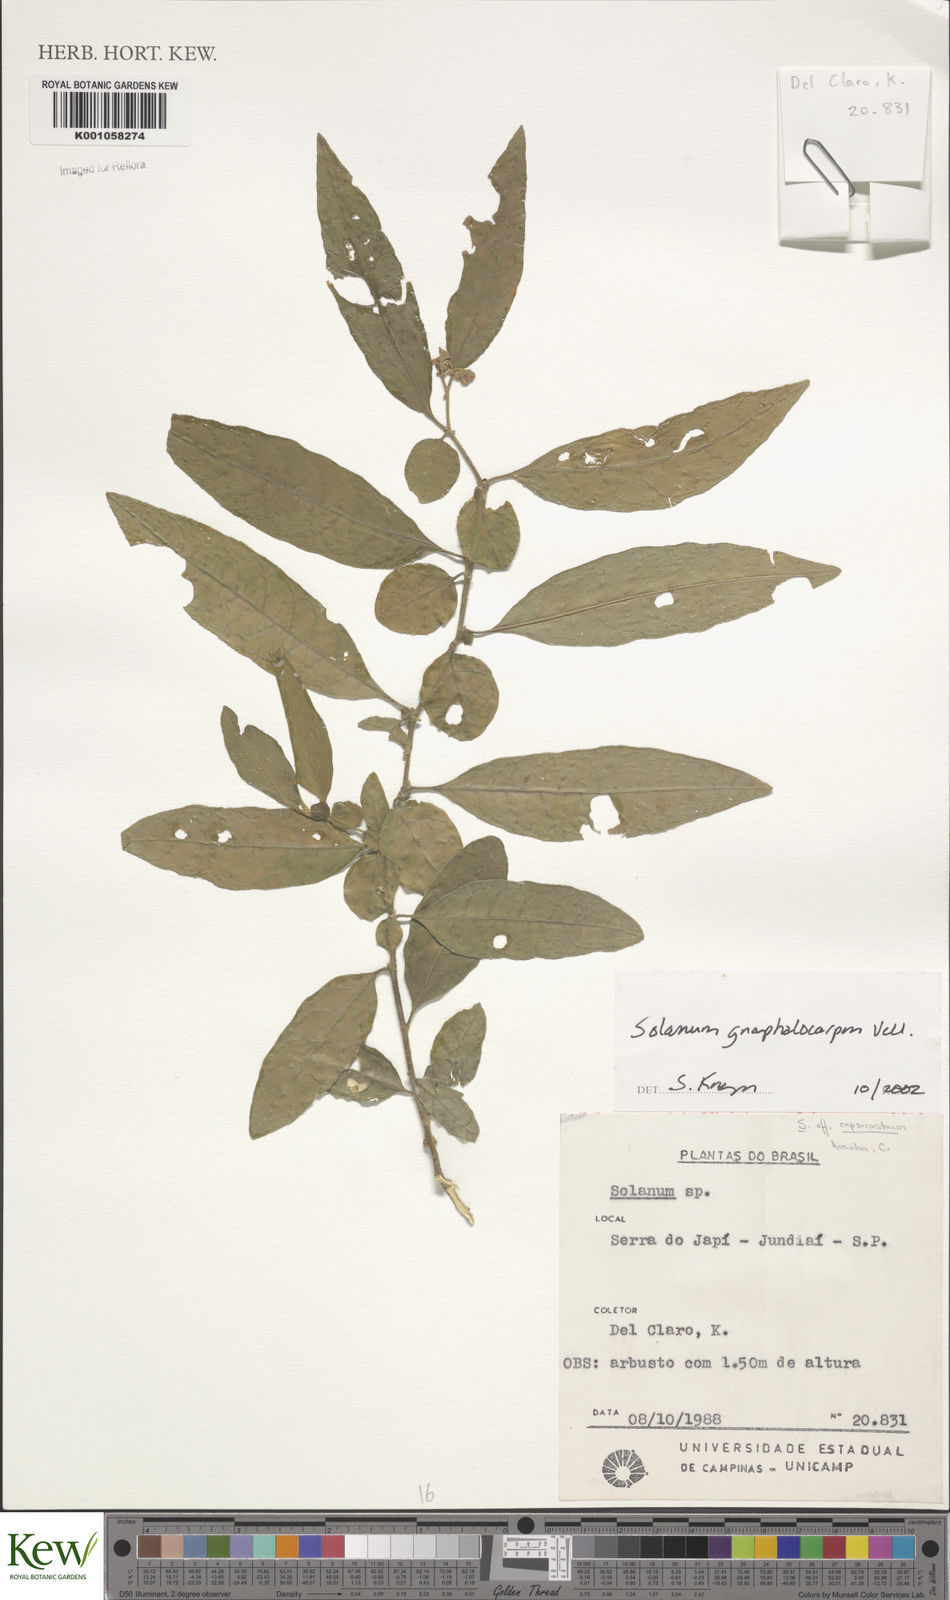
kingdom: Plantae
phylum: Tracheophyta
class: Magnoliopsida
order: Solanales
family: Solanaceae
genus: Solanum
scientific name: Solanum gnaphalocarpum
